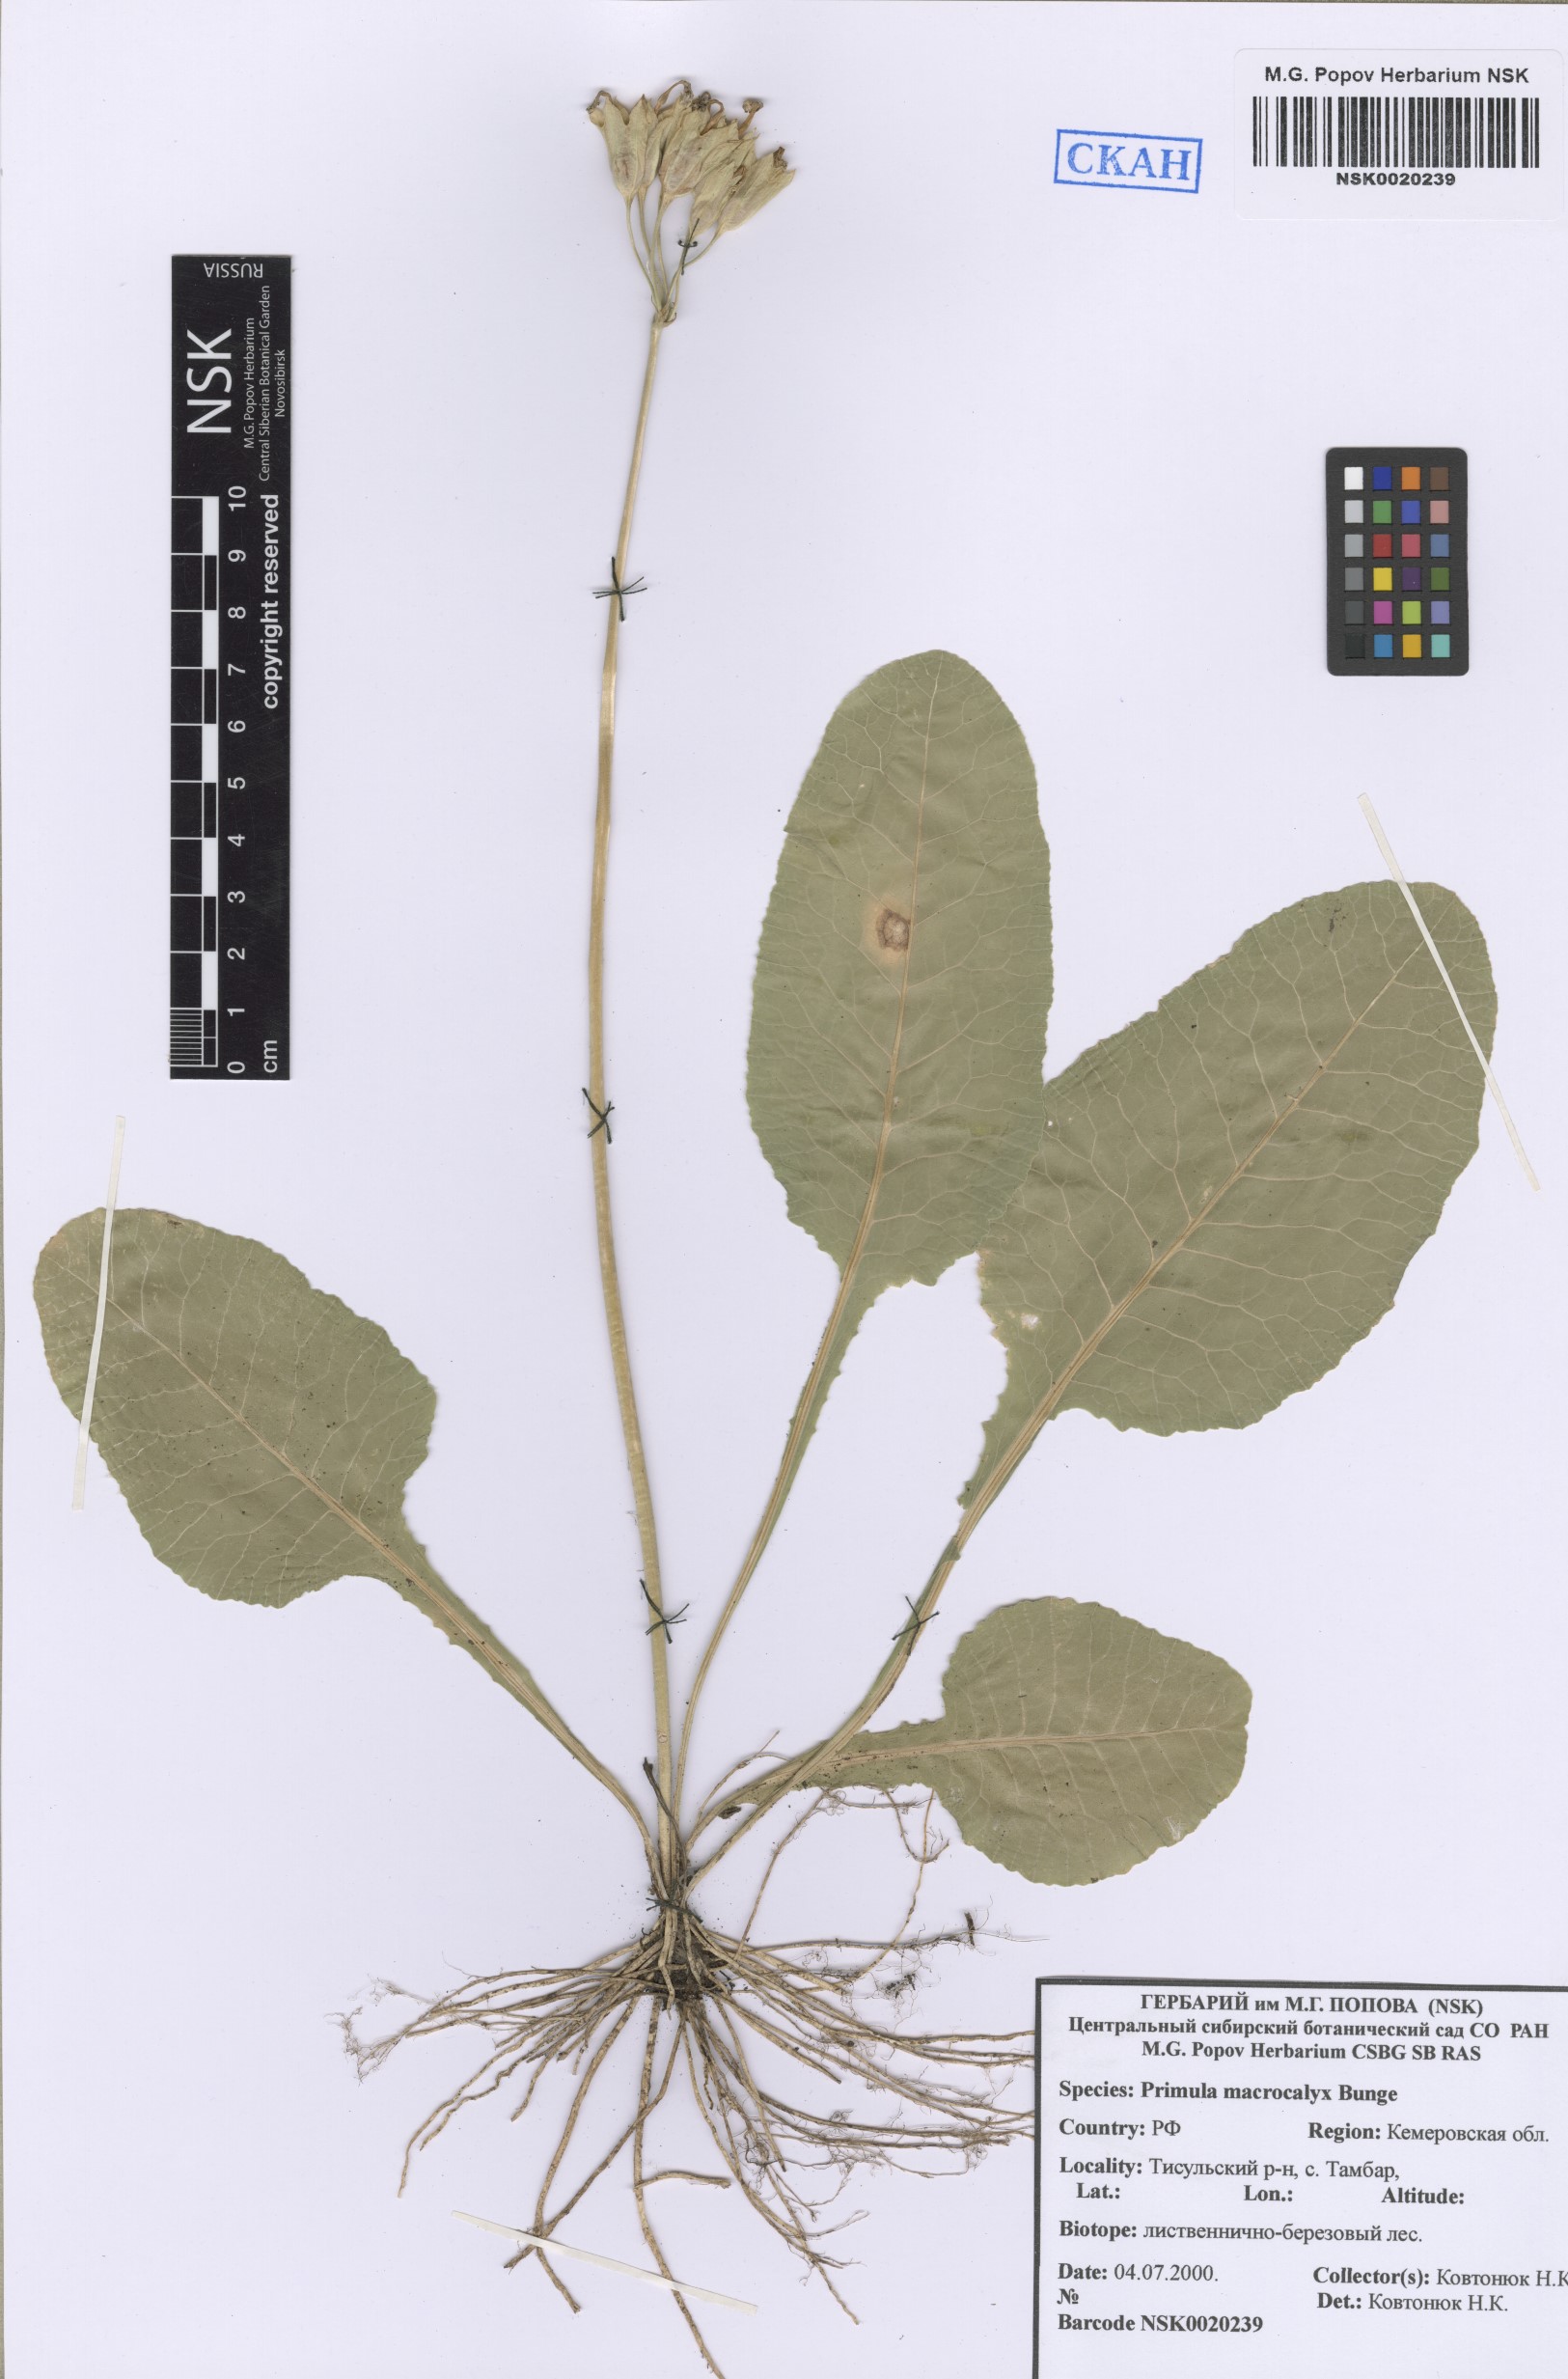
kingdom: Plantae
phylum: Tracheophyta
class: Magnoliopsida
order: Ericales
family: Primulaceae
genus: Primula
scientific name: Primula veris
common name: Cowslip
